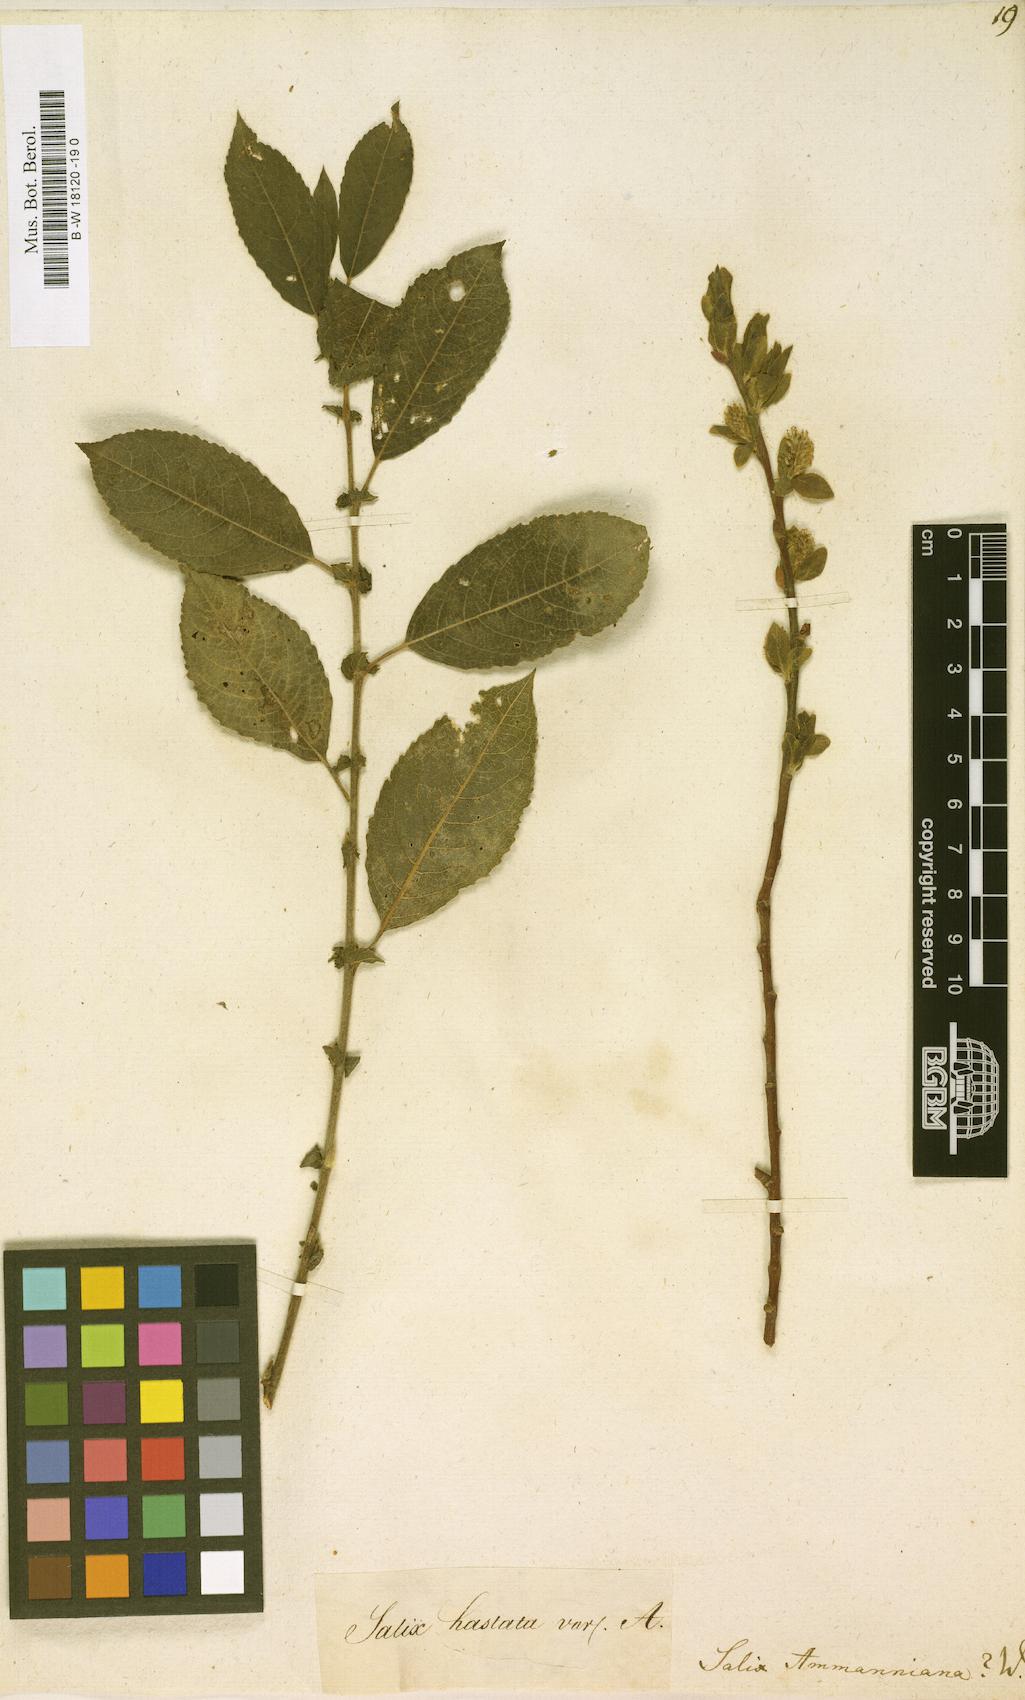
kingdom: Plantae
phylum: Tracheophyta
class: Magnoliopsida
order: Malpighiales
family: Salicaceae
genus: Salix
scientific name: Salix myrsinifolia
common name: Dark-leaved willow
